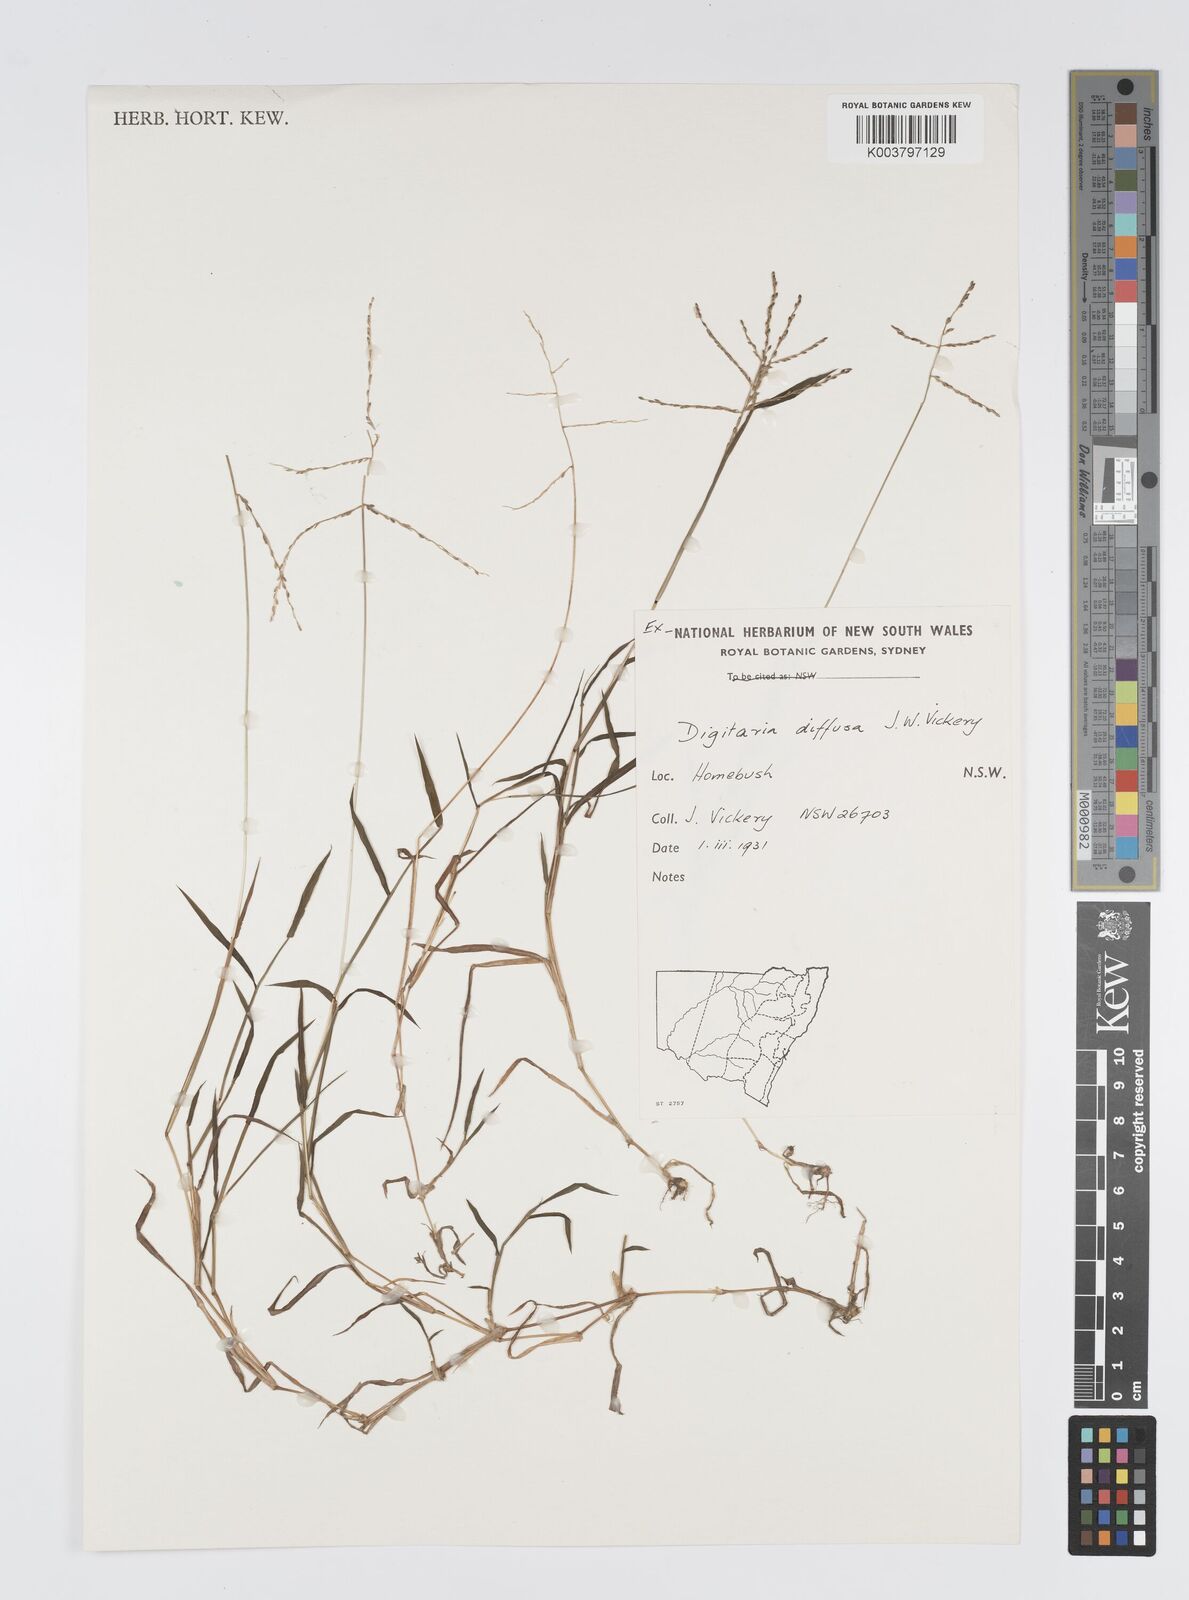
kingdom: Plantae
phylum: Tracheophyta
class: Liliopsida
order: Poales
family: Poaceae
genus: Digitaria
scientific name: Digitaria diffusa
